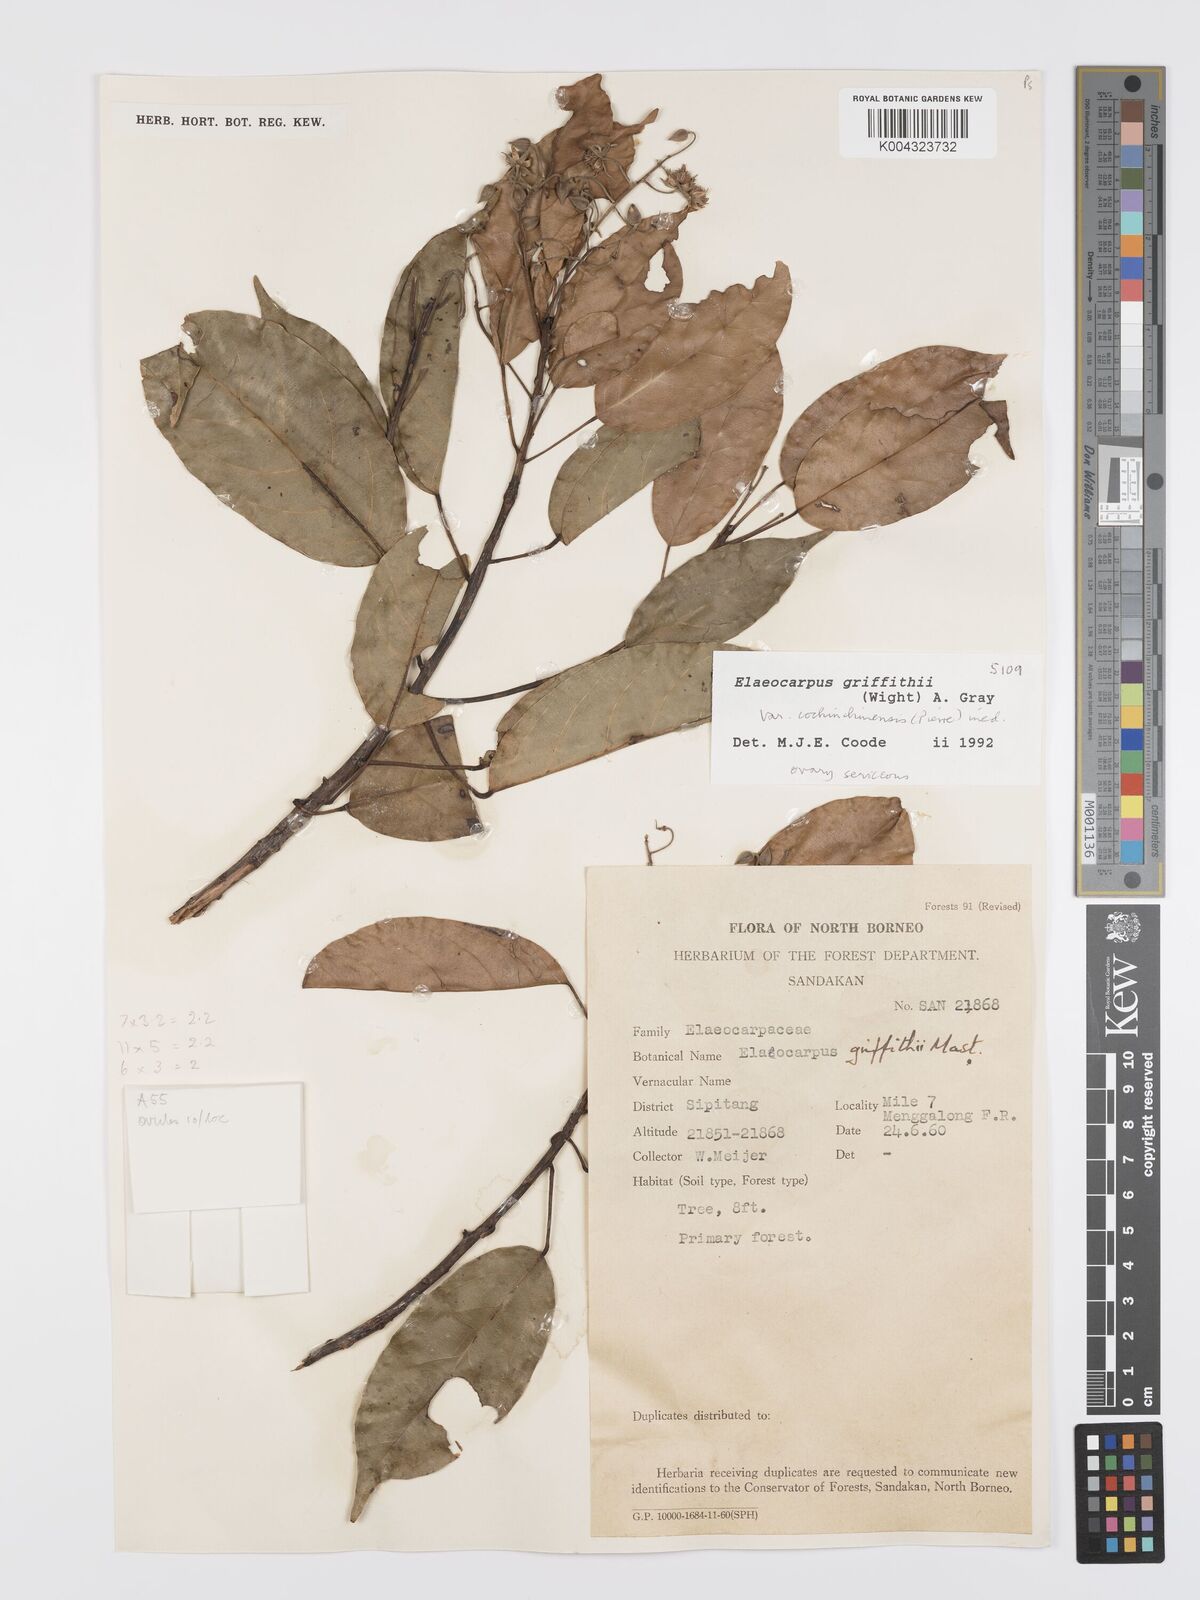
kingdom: Plantae
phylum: Tracheophyta
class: Magnoliopsida
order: Oxalidales
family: Elaeocarpaceae
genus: Elaeocarpus
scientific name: Elaeocarpus griffithii
